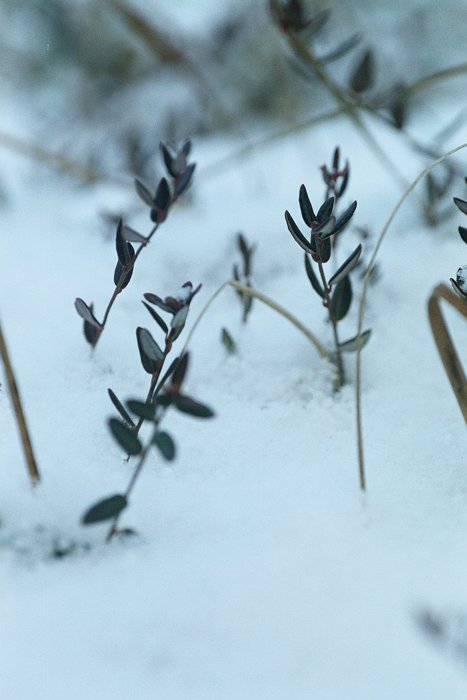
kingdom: Plantae
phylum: Tracheophyta
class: Magnoliopsida
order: Ericales
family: Ericaceae
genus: Vaccinium
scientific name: Vaccinium oxycoccos
